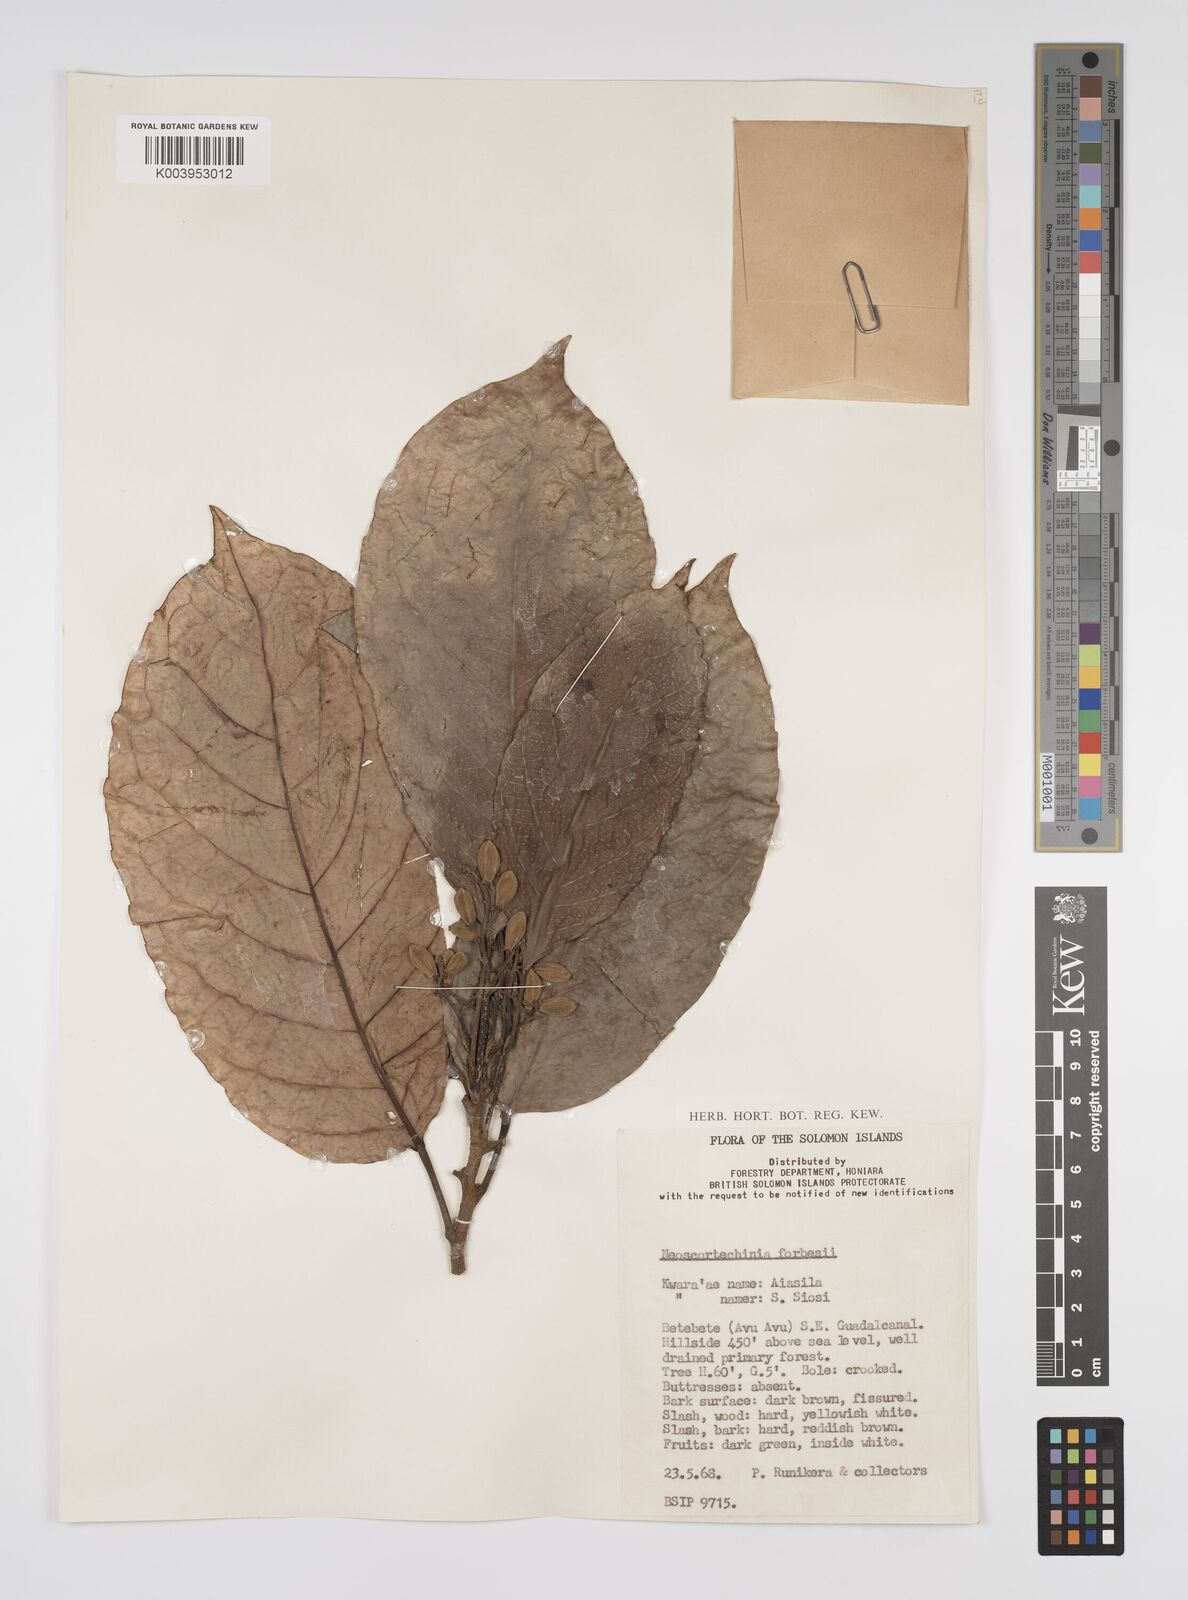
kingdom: Plantae
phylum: Tracheophyta
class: Magnoliopsida
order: Malpighiales
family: Euphorbiaceae
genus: Neoscortechinia
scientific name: Neoscortechinia forbesii
